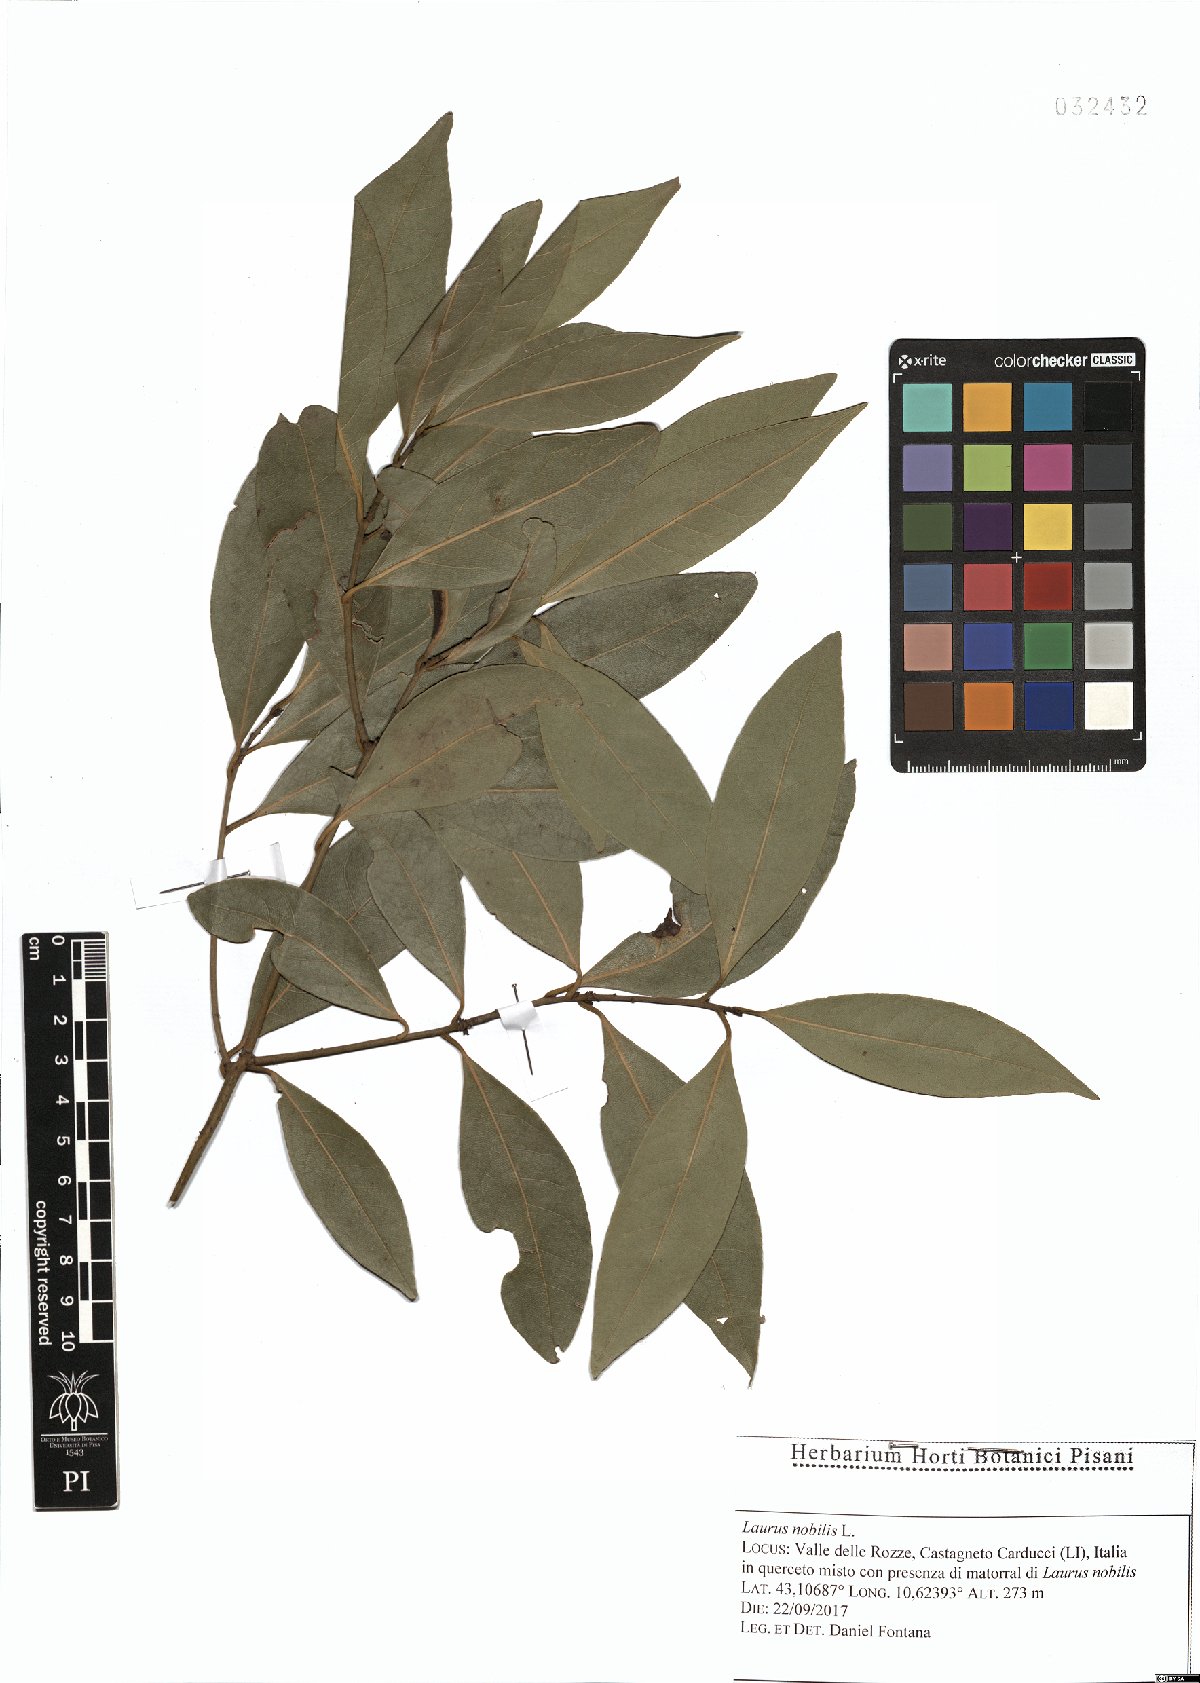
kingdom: Plantae
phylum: Tracheophyta
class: Magnoliopsida
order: Laurales
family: Lauraceae
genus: Laurus
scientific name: Laurus nobilis
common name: Bay
